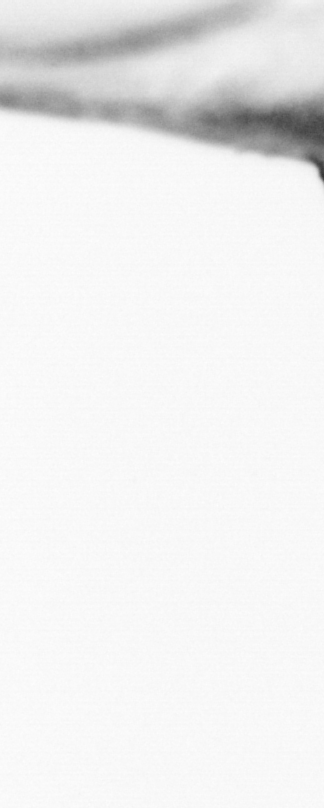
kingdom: Animalia
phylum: Chordata
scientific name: Chordata
